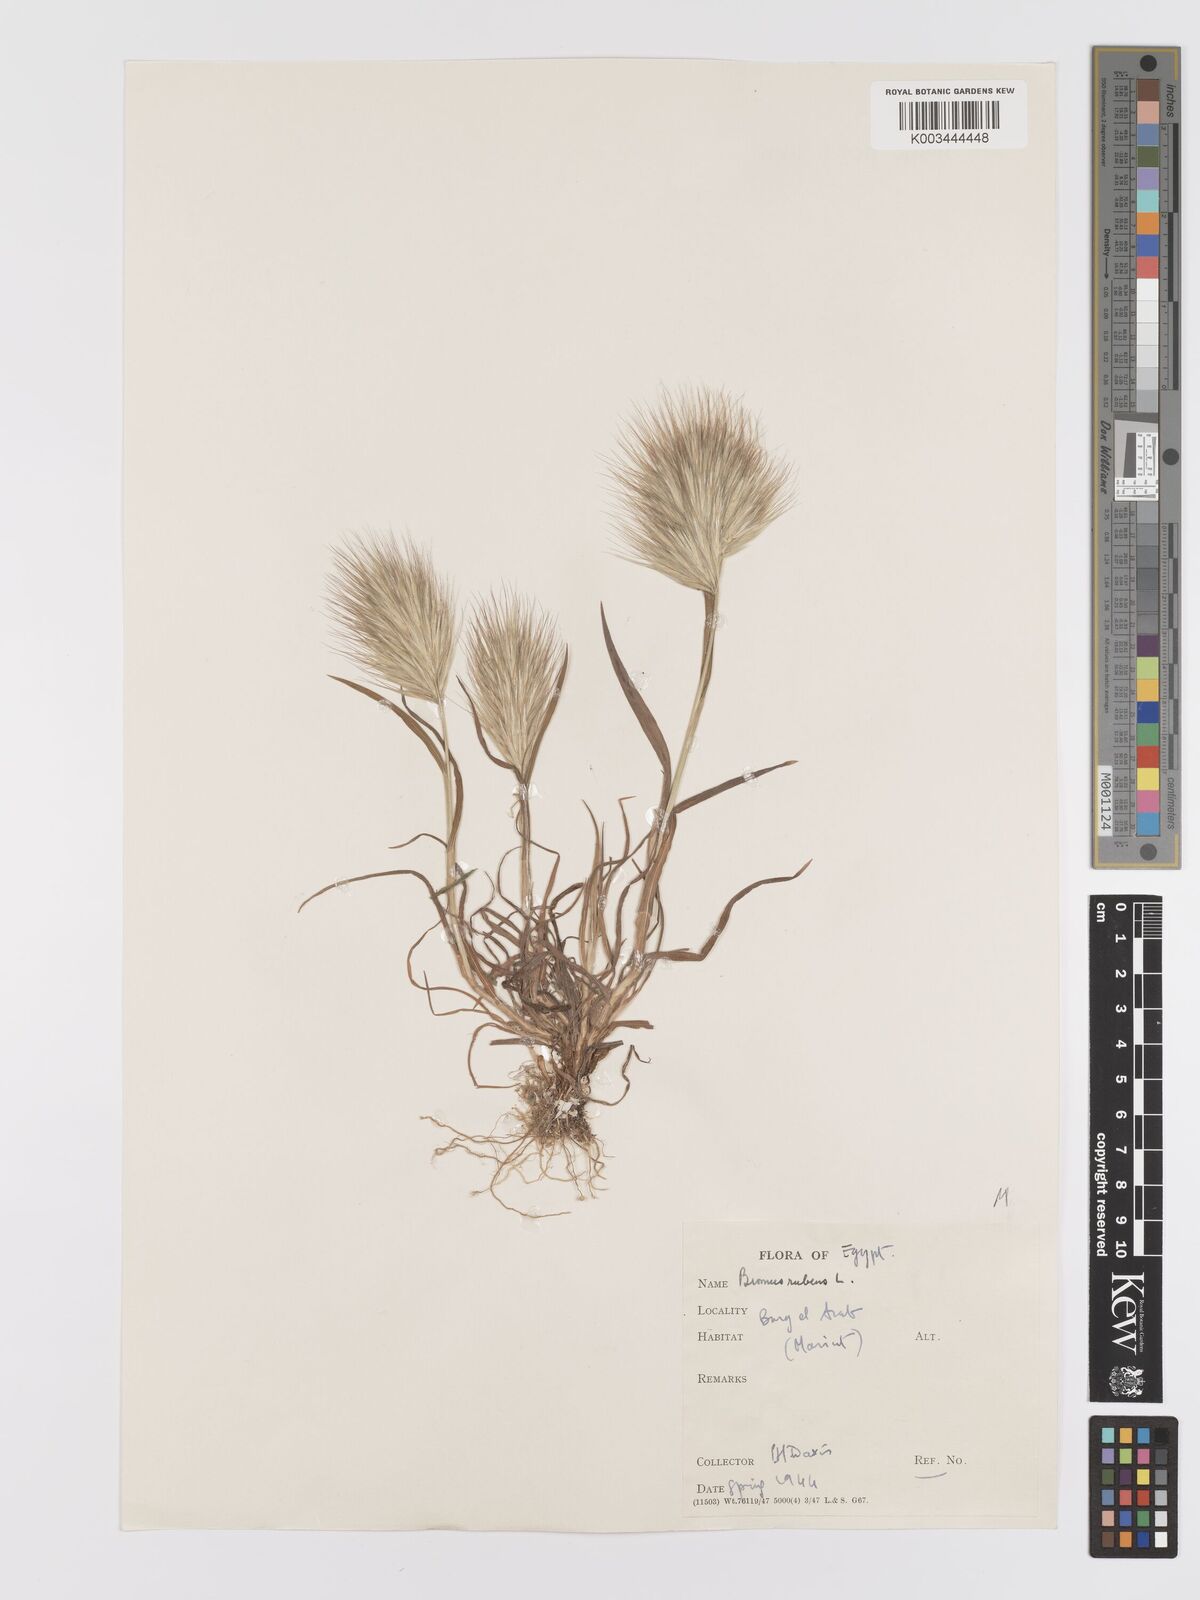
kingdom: Plantae
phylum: Tracheophyta
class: Liliopsida
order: Poales
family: Poaceae
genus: Bromus
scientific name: Bromus rubens
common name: Red brome
